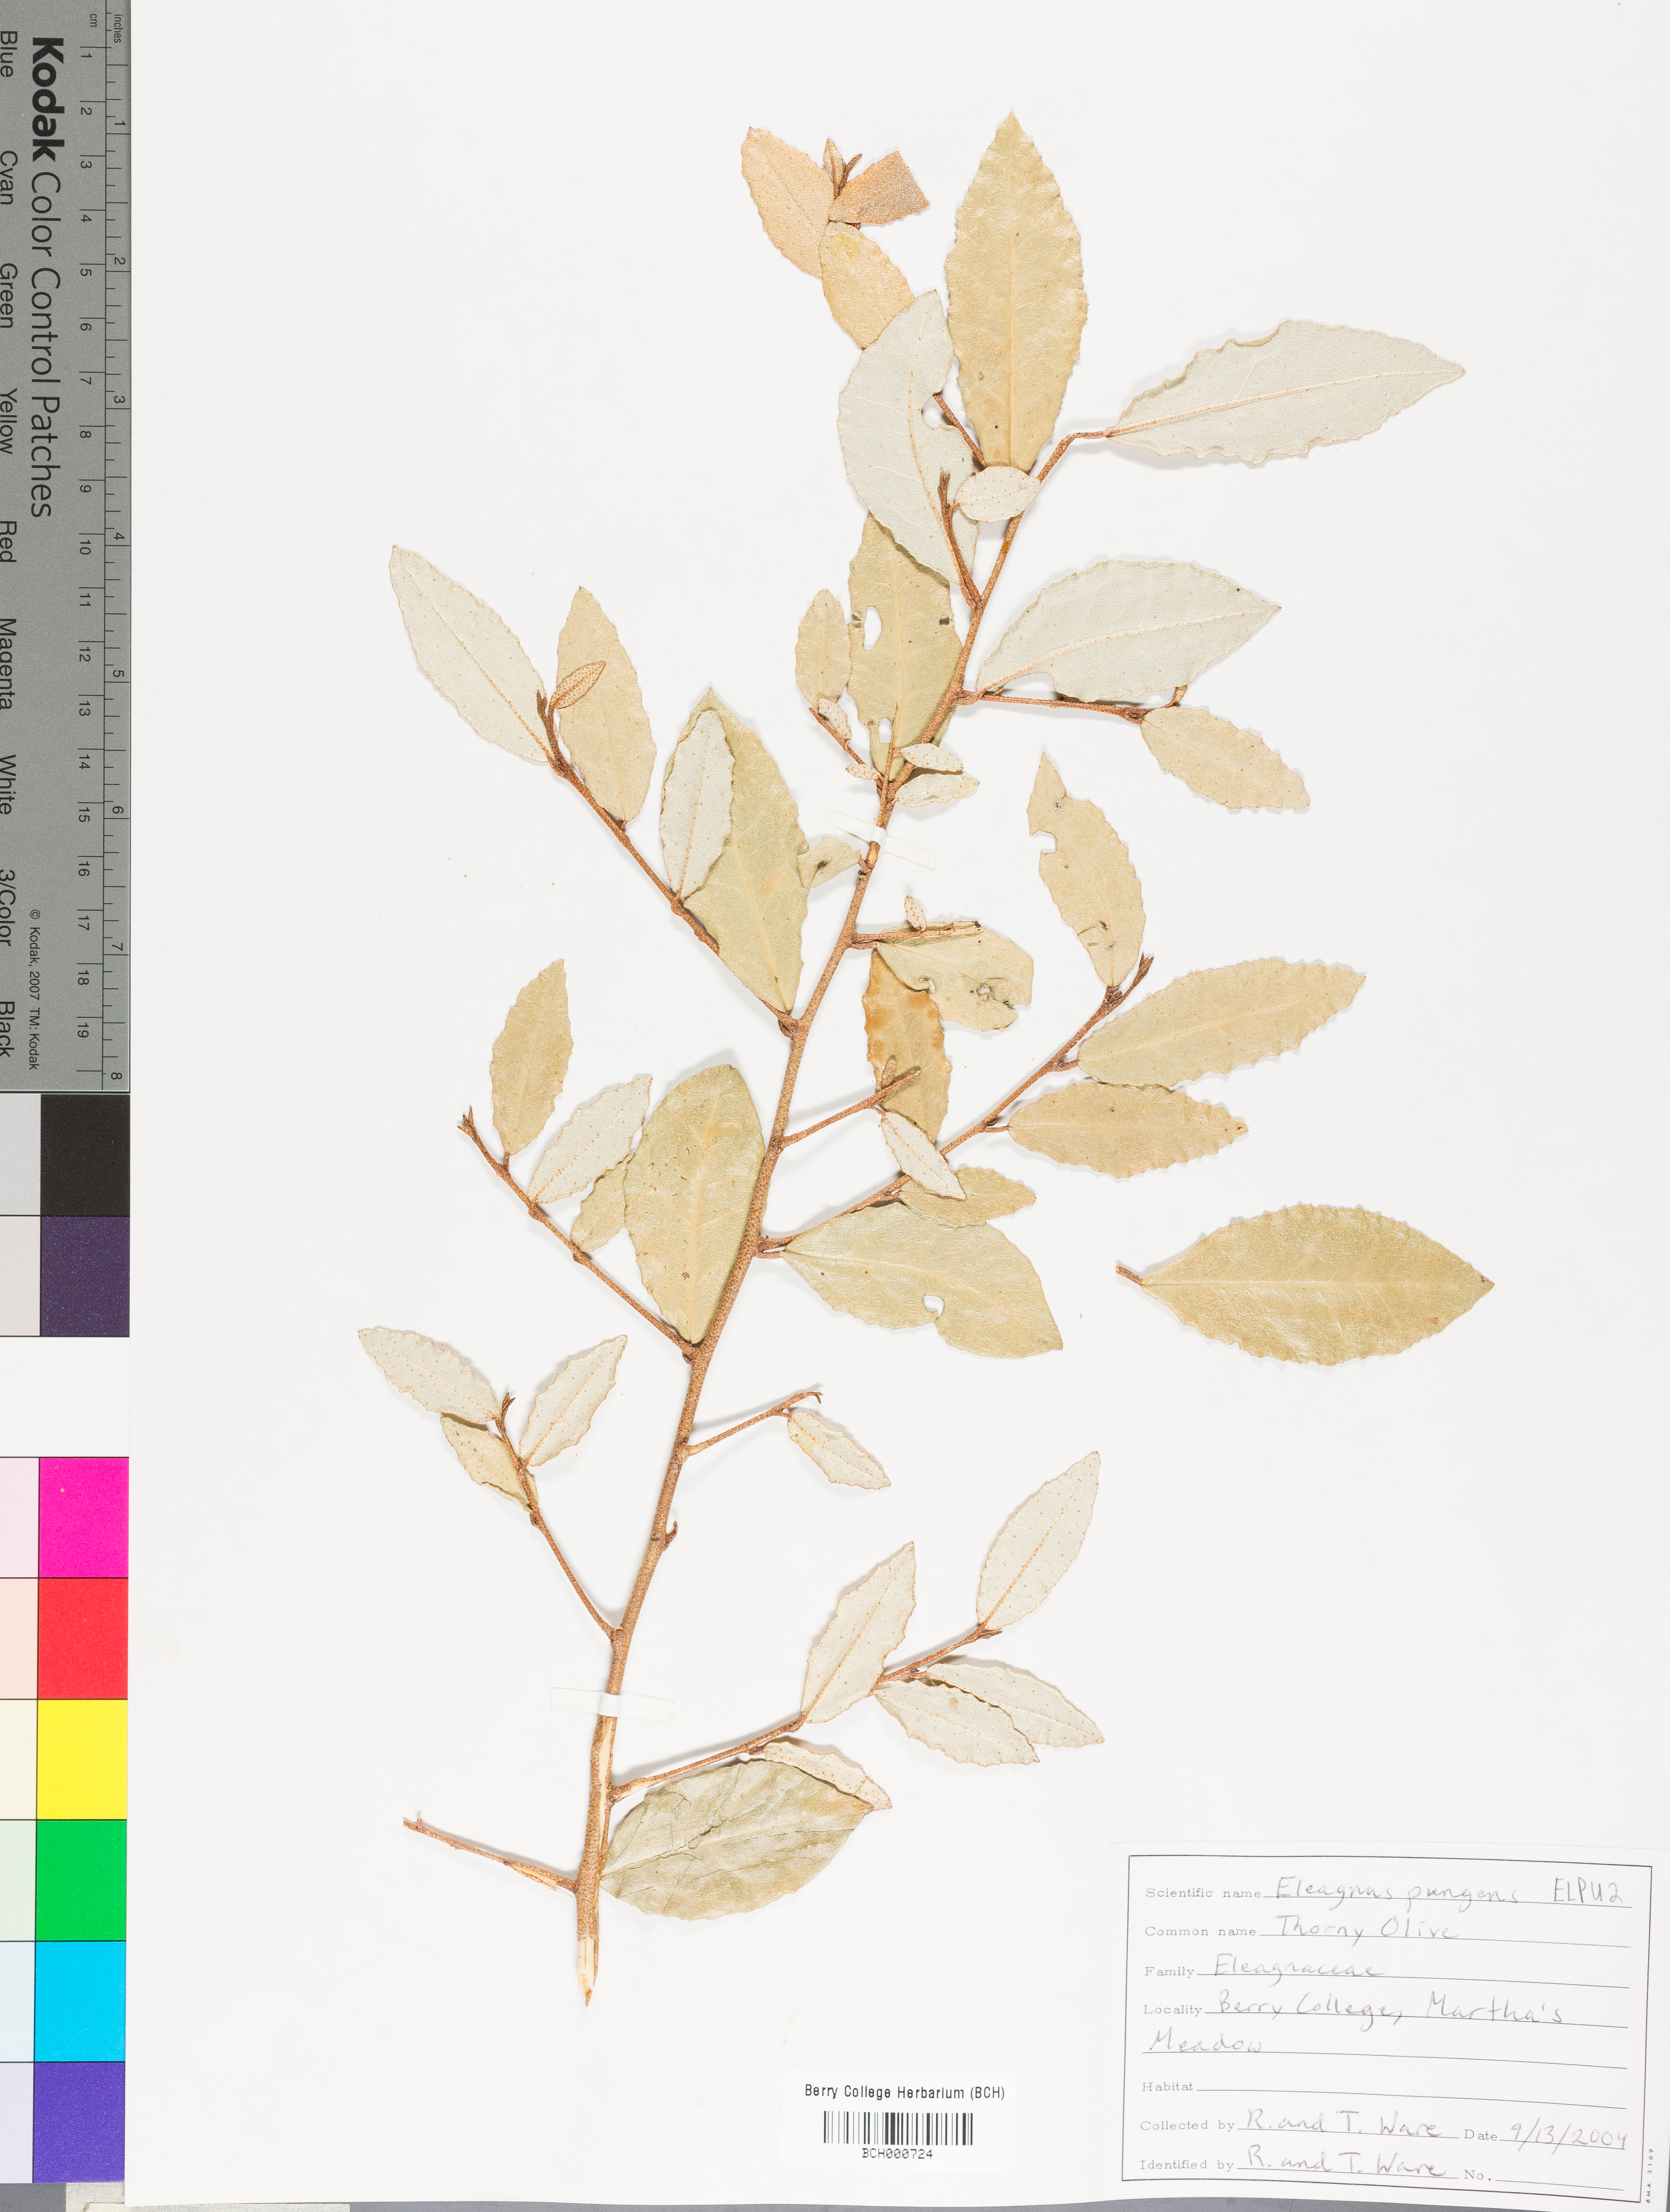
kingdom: Plantae
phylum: Tracheophyta
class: Magnoliopsida
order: Rosales
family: Elaeagnaceae
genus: Elaeagnus
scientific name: Elaeagnus pungens
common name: Spiny oleaster
